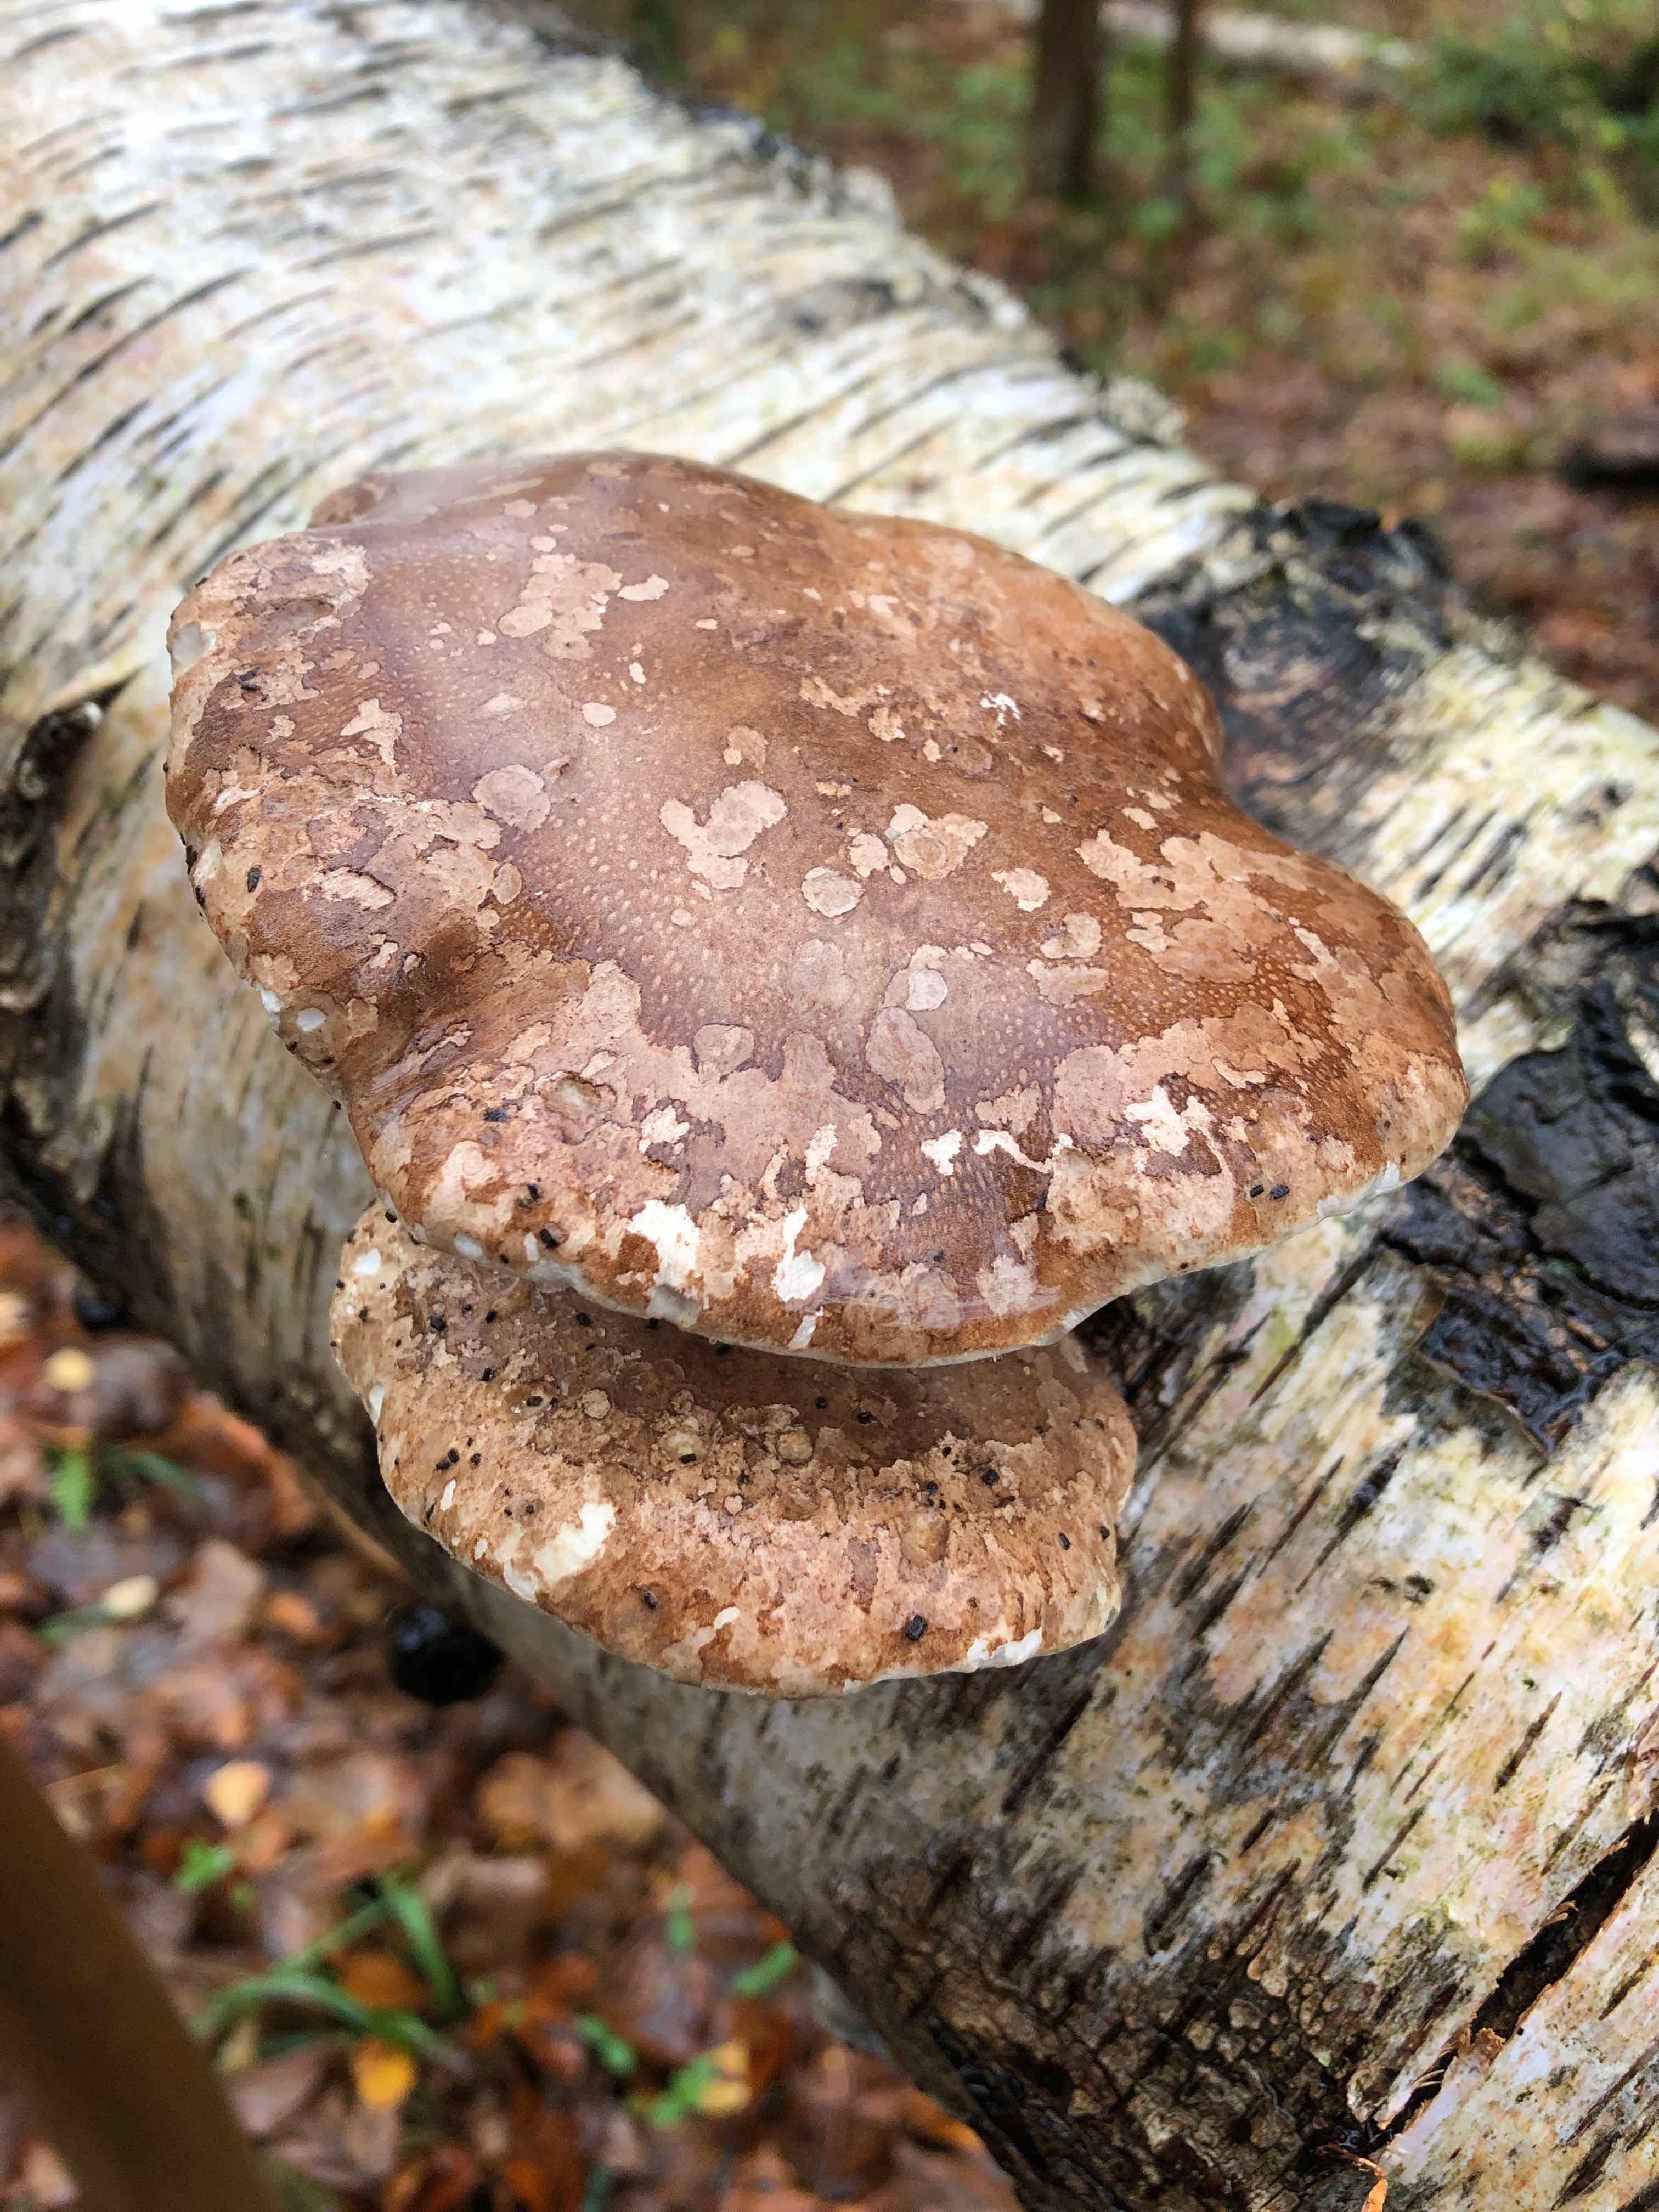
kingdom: Fungi
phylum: Basidiomycota
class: Agaricomycetes
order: Polyporales
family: Fomitopsidaceae
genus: Fomitopsis
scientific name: Fomitopsis betulina
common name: birkeporesvamp
